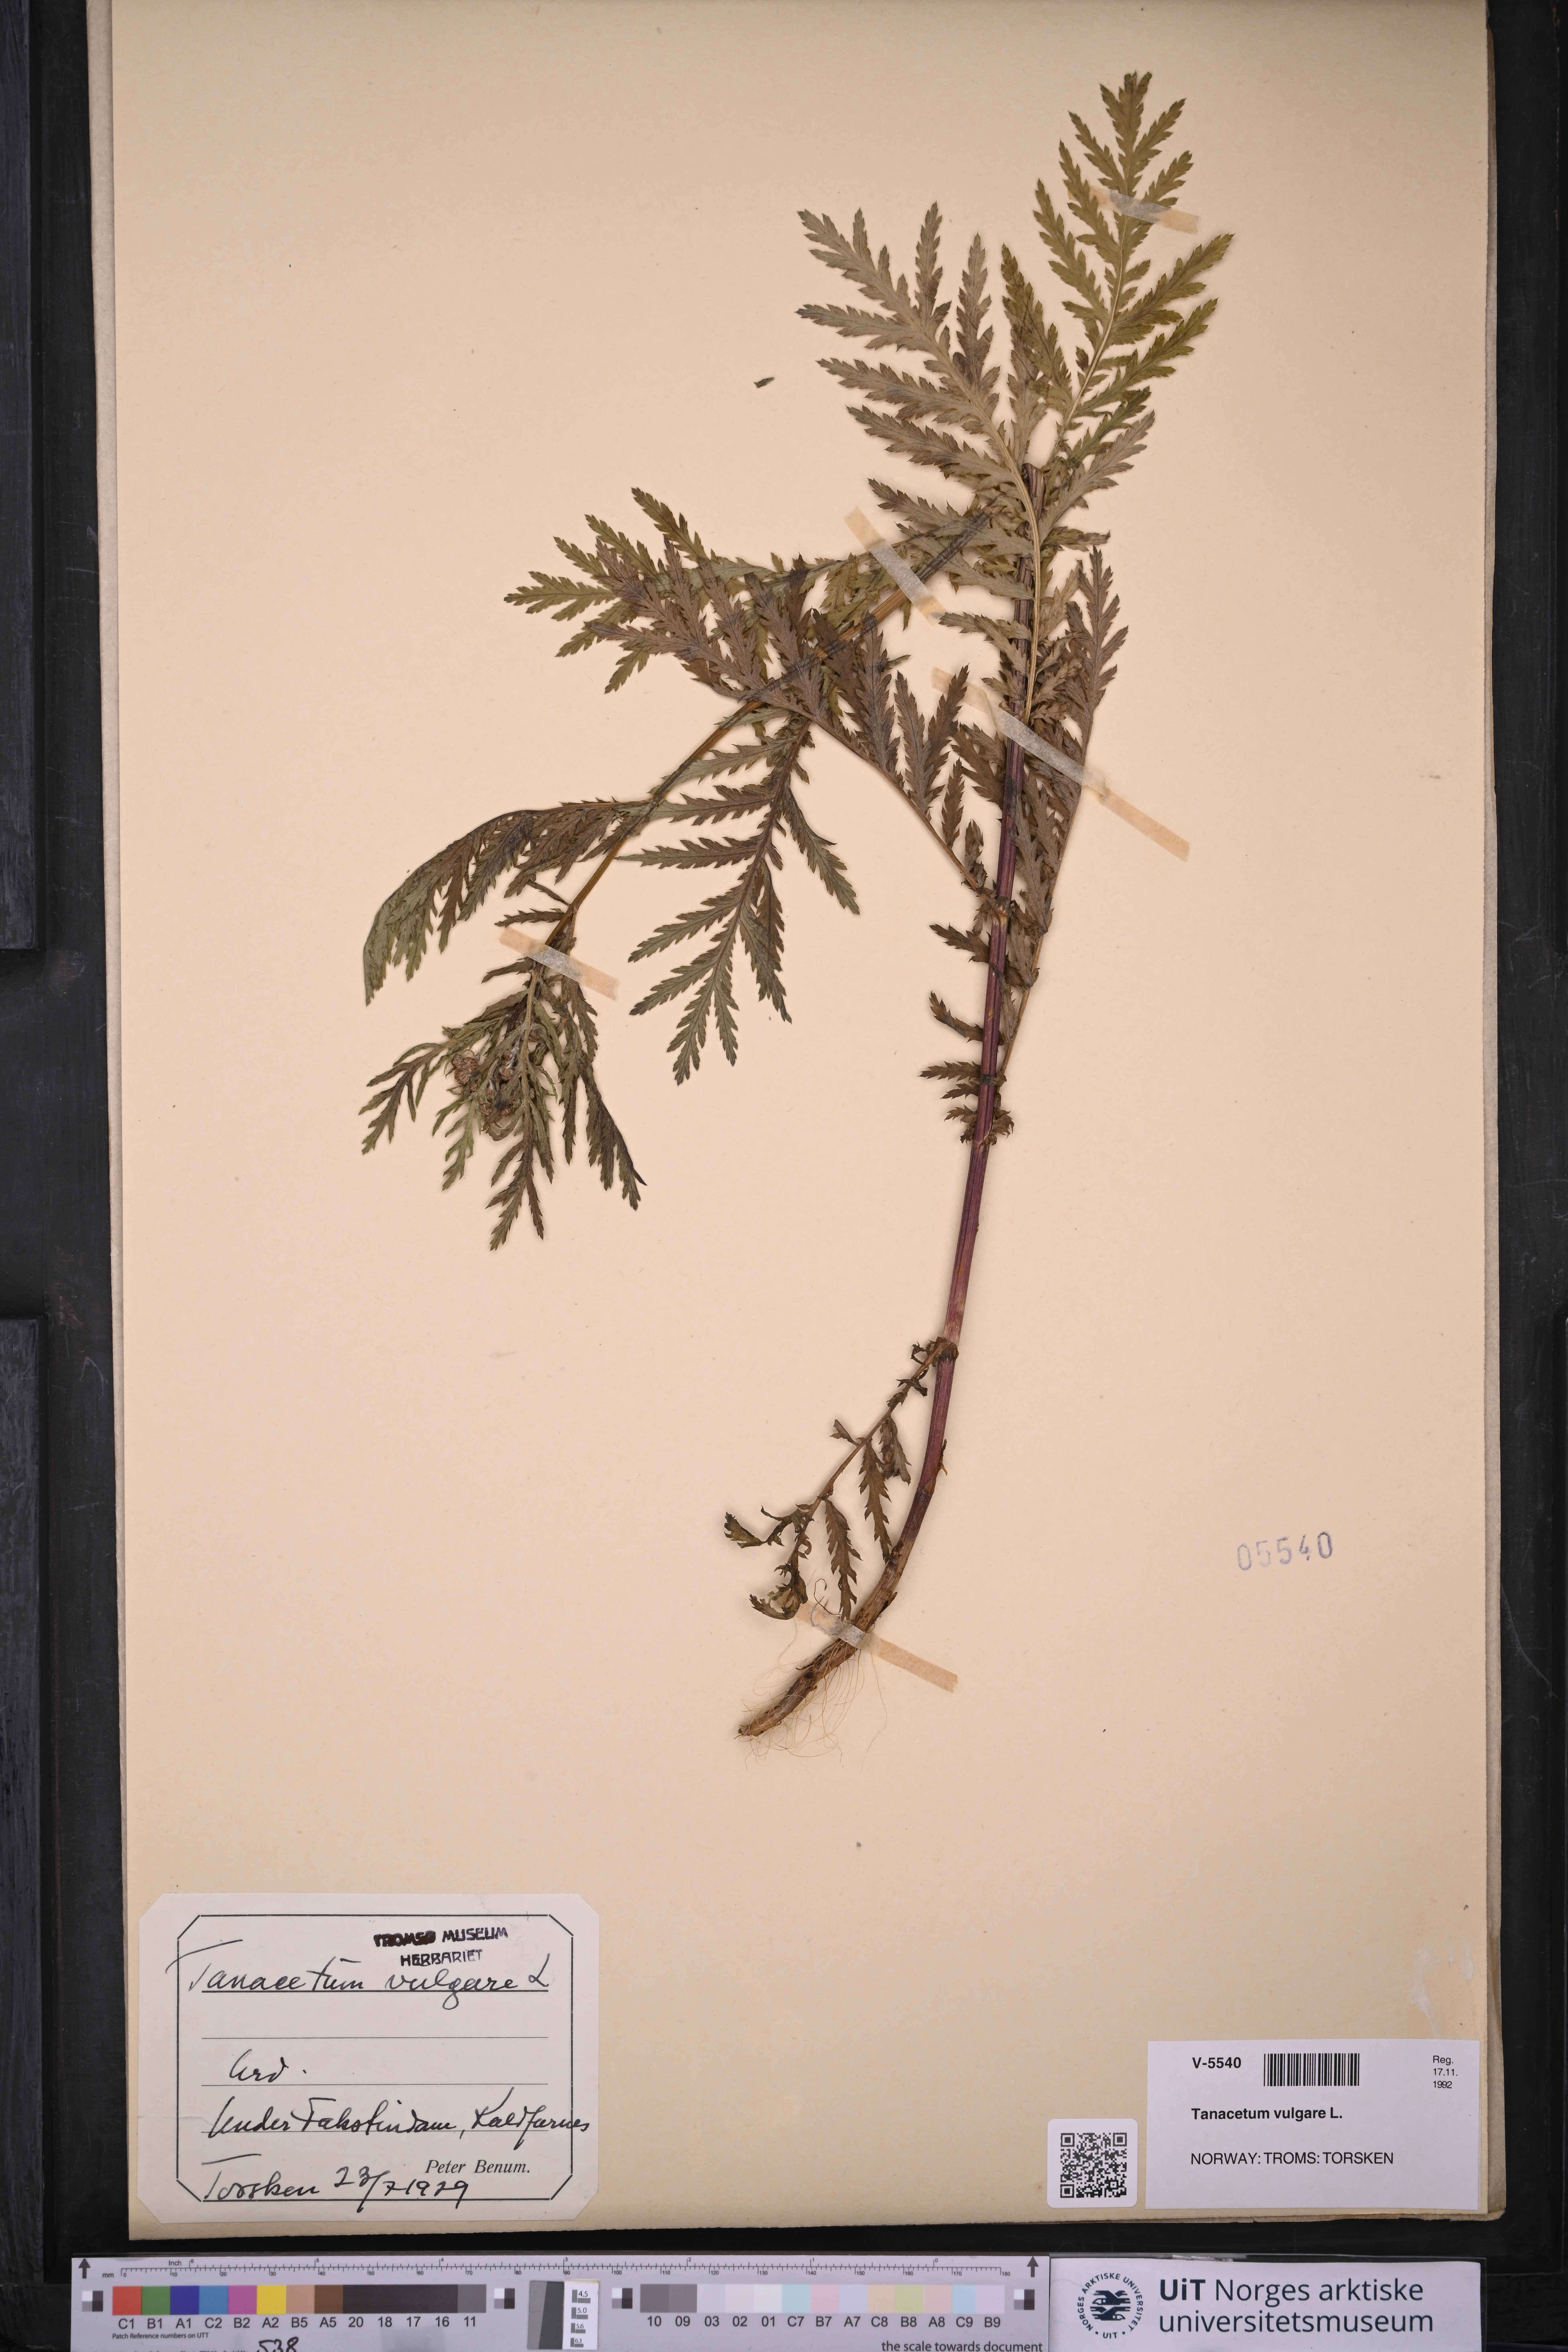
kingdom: Plantae
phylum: Tracheophyta
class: Magnoliopsida
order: Asterales
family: Asteraceae
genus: Tanacetum
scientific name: Tanacetum vulgare
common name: Common tansy
